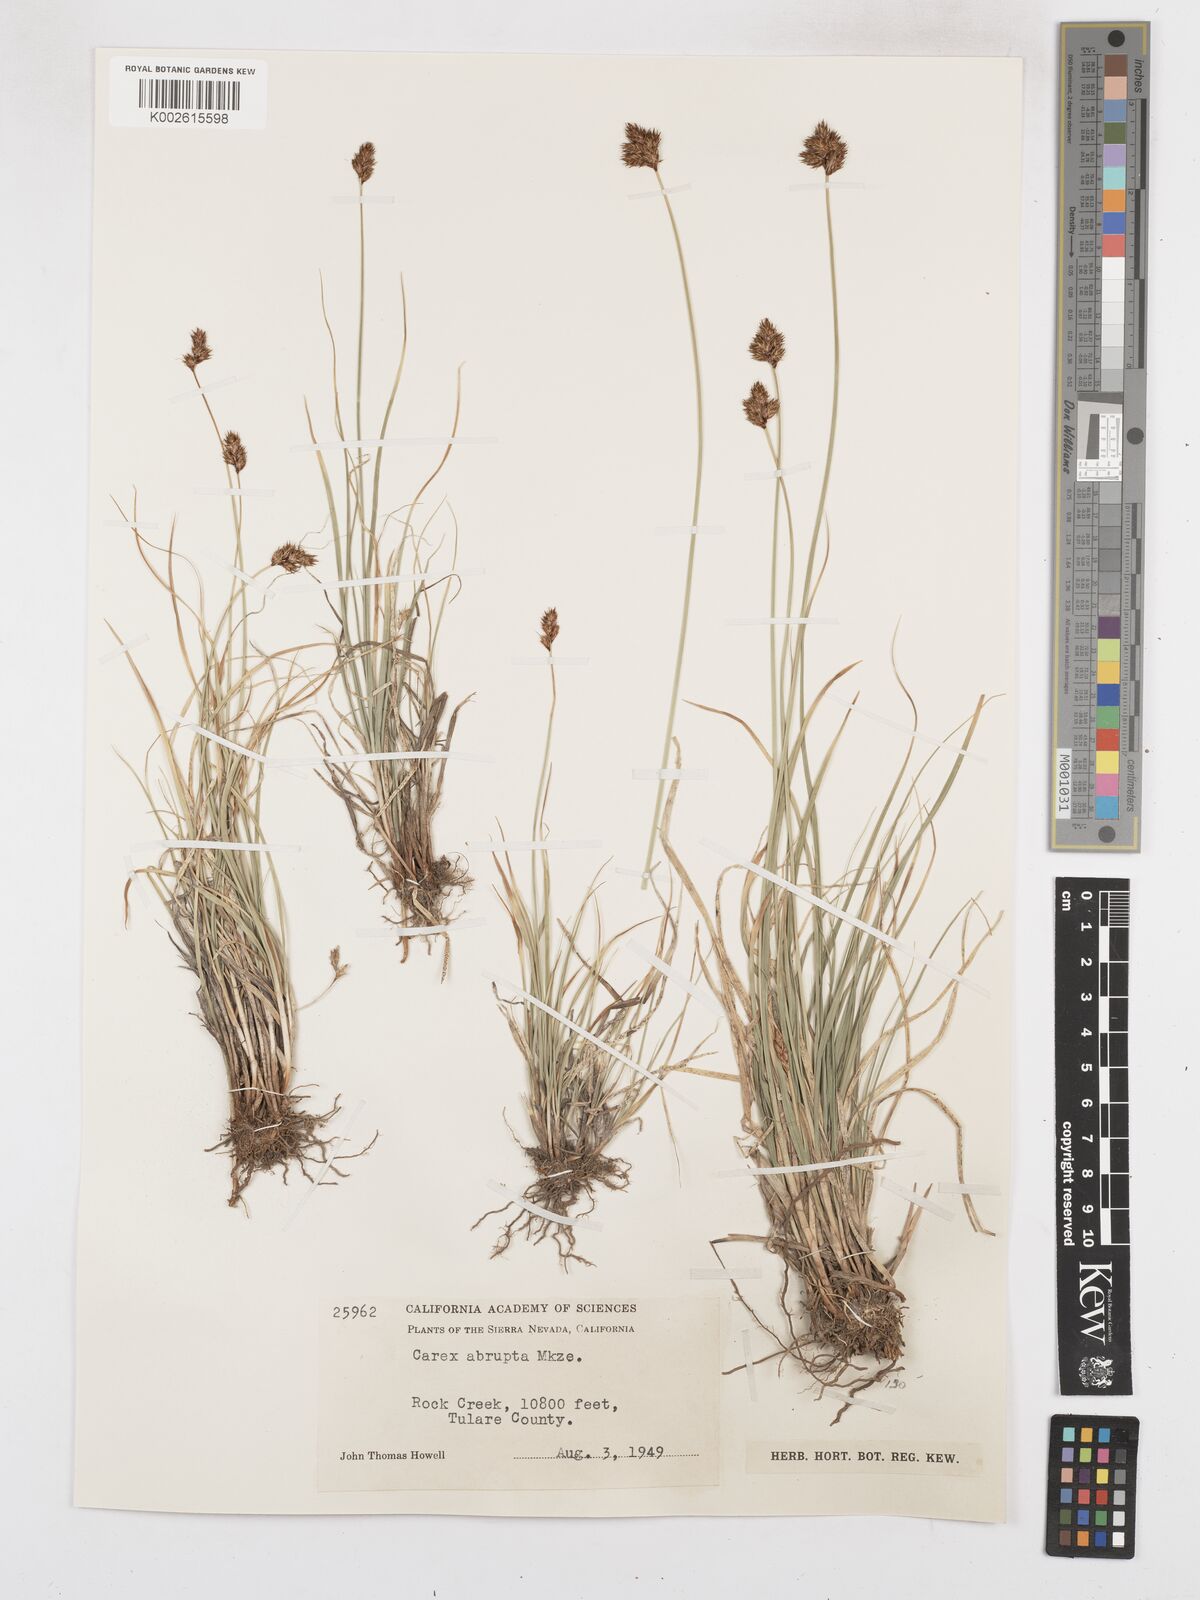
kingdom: Plantae
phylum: Tracheophyta
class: Liliopsida
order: Poales
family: Cyperaceae
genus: Carex
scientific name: Carex abrupta
